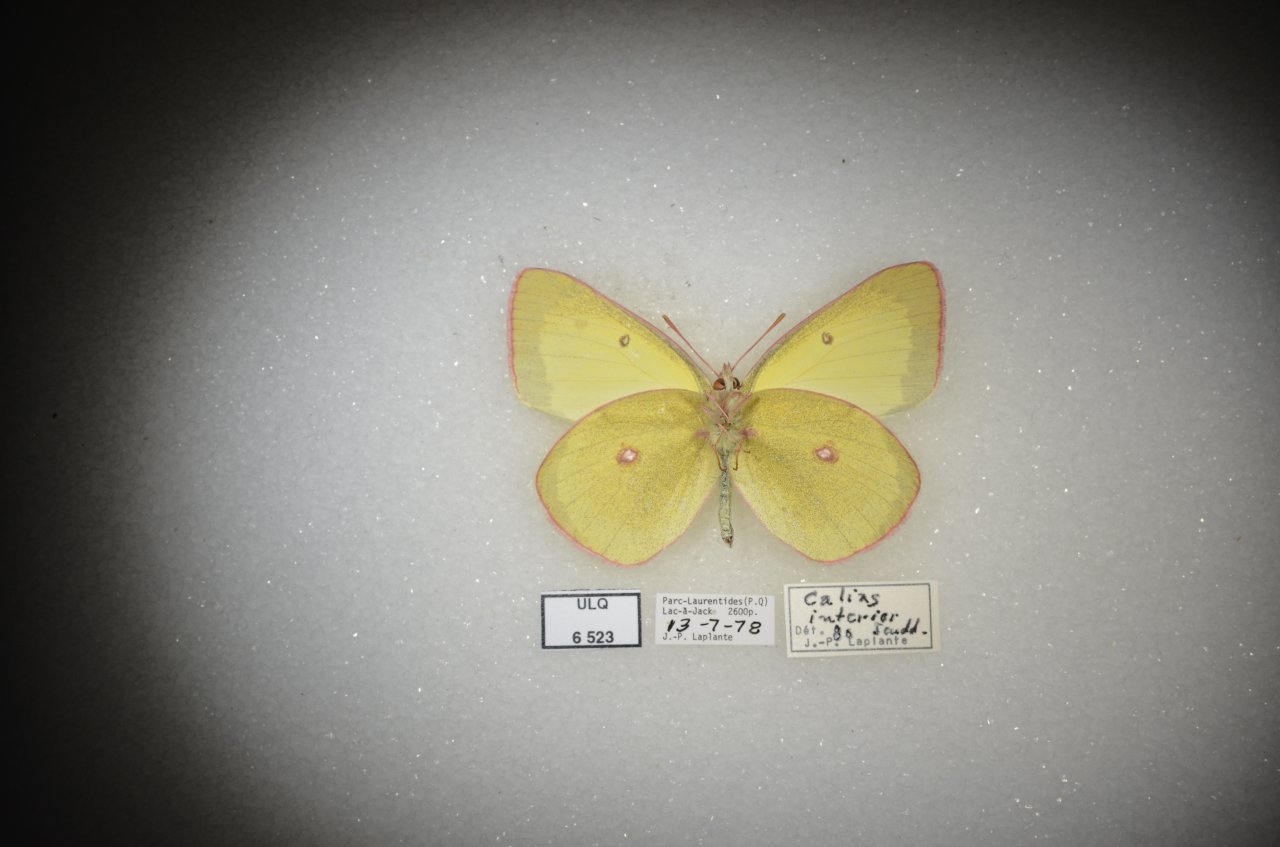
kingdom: Animalia
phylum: Arthropoda
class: Insecta
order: Lepidoptera
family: Pieridae
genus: Colias
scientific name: Colias interior
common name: Pink-edged Sulphur
